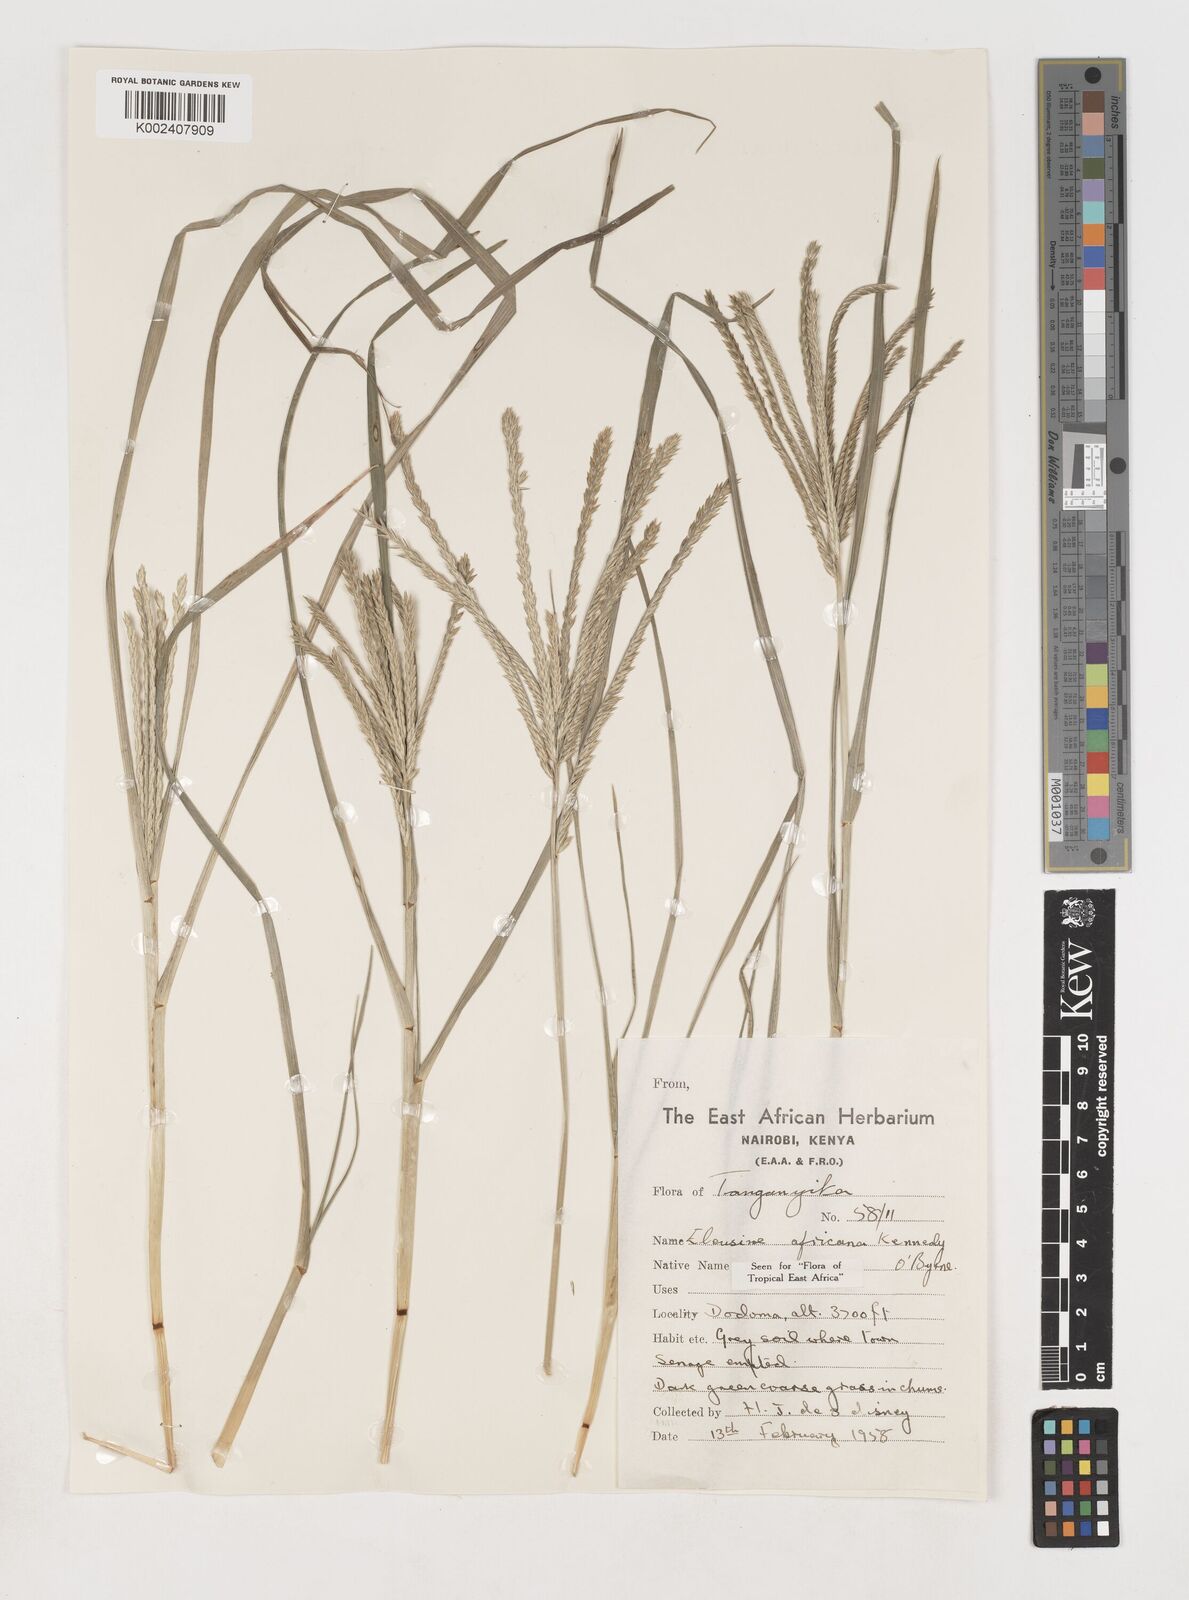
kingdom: Plantae
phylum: Tracheophyta
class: Liliopsida
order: Poales
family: Poaceae
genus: Eleusine
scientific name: Eleusine africana
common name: Wild african finger millet
